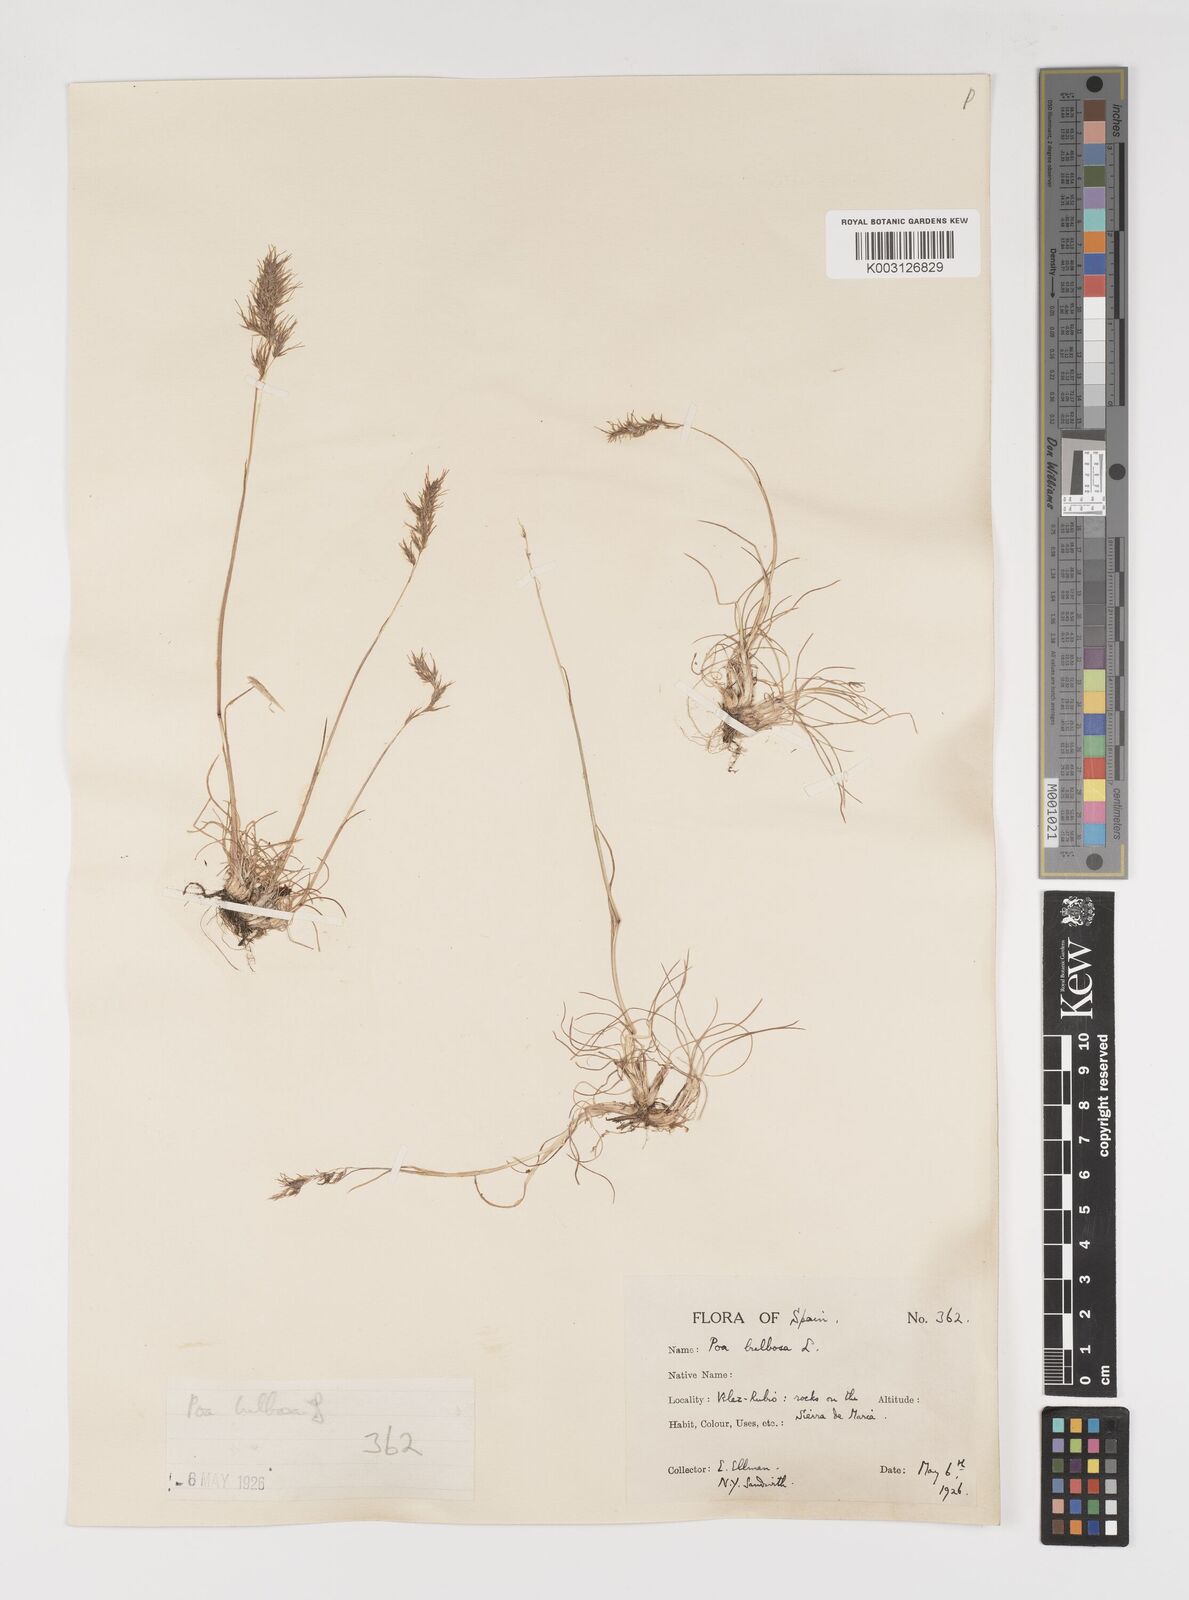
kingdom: Plantae
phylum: Tracheophyta
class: Liliopsida
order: Poales
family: Poaceae
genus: Poa
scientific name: Poa bulbosa
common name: Bulbous bluegrass
